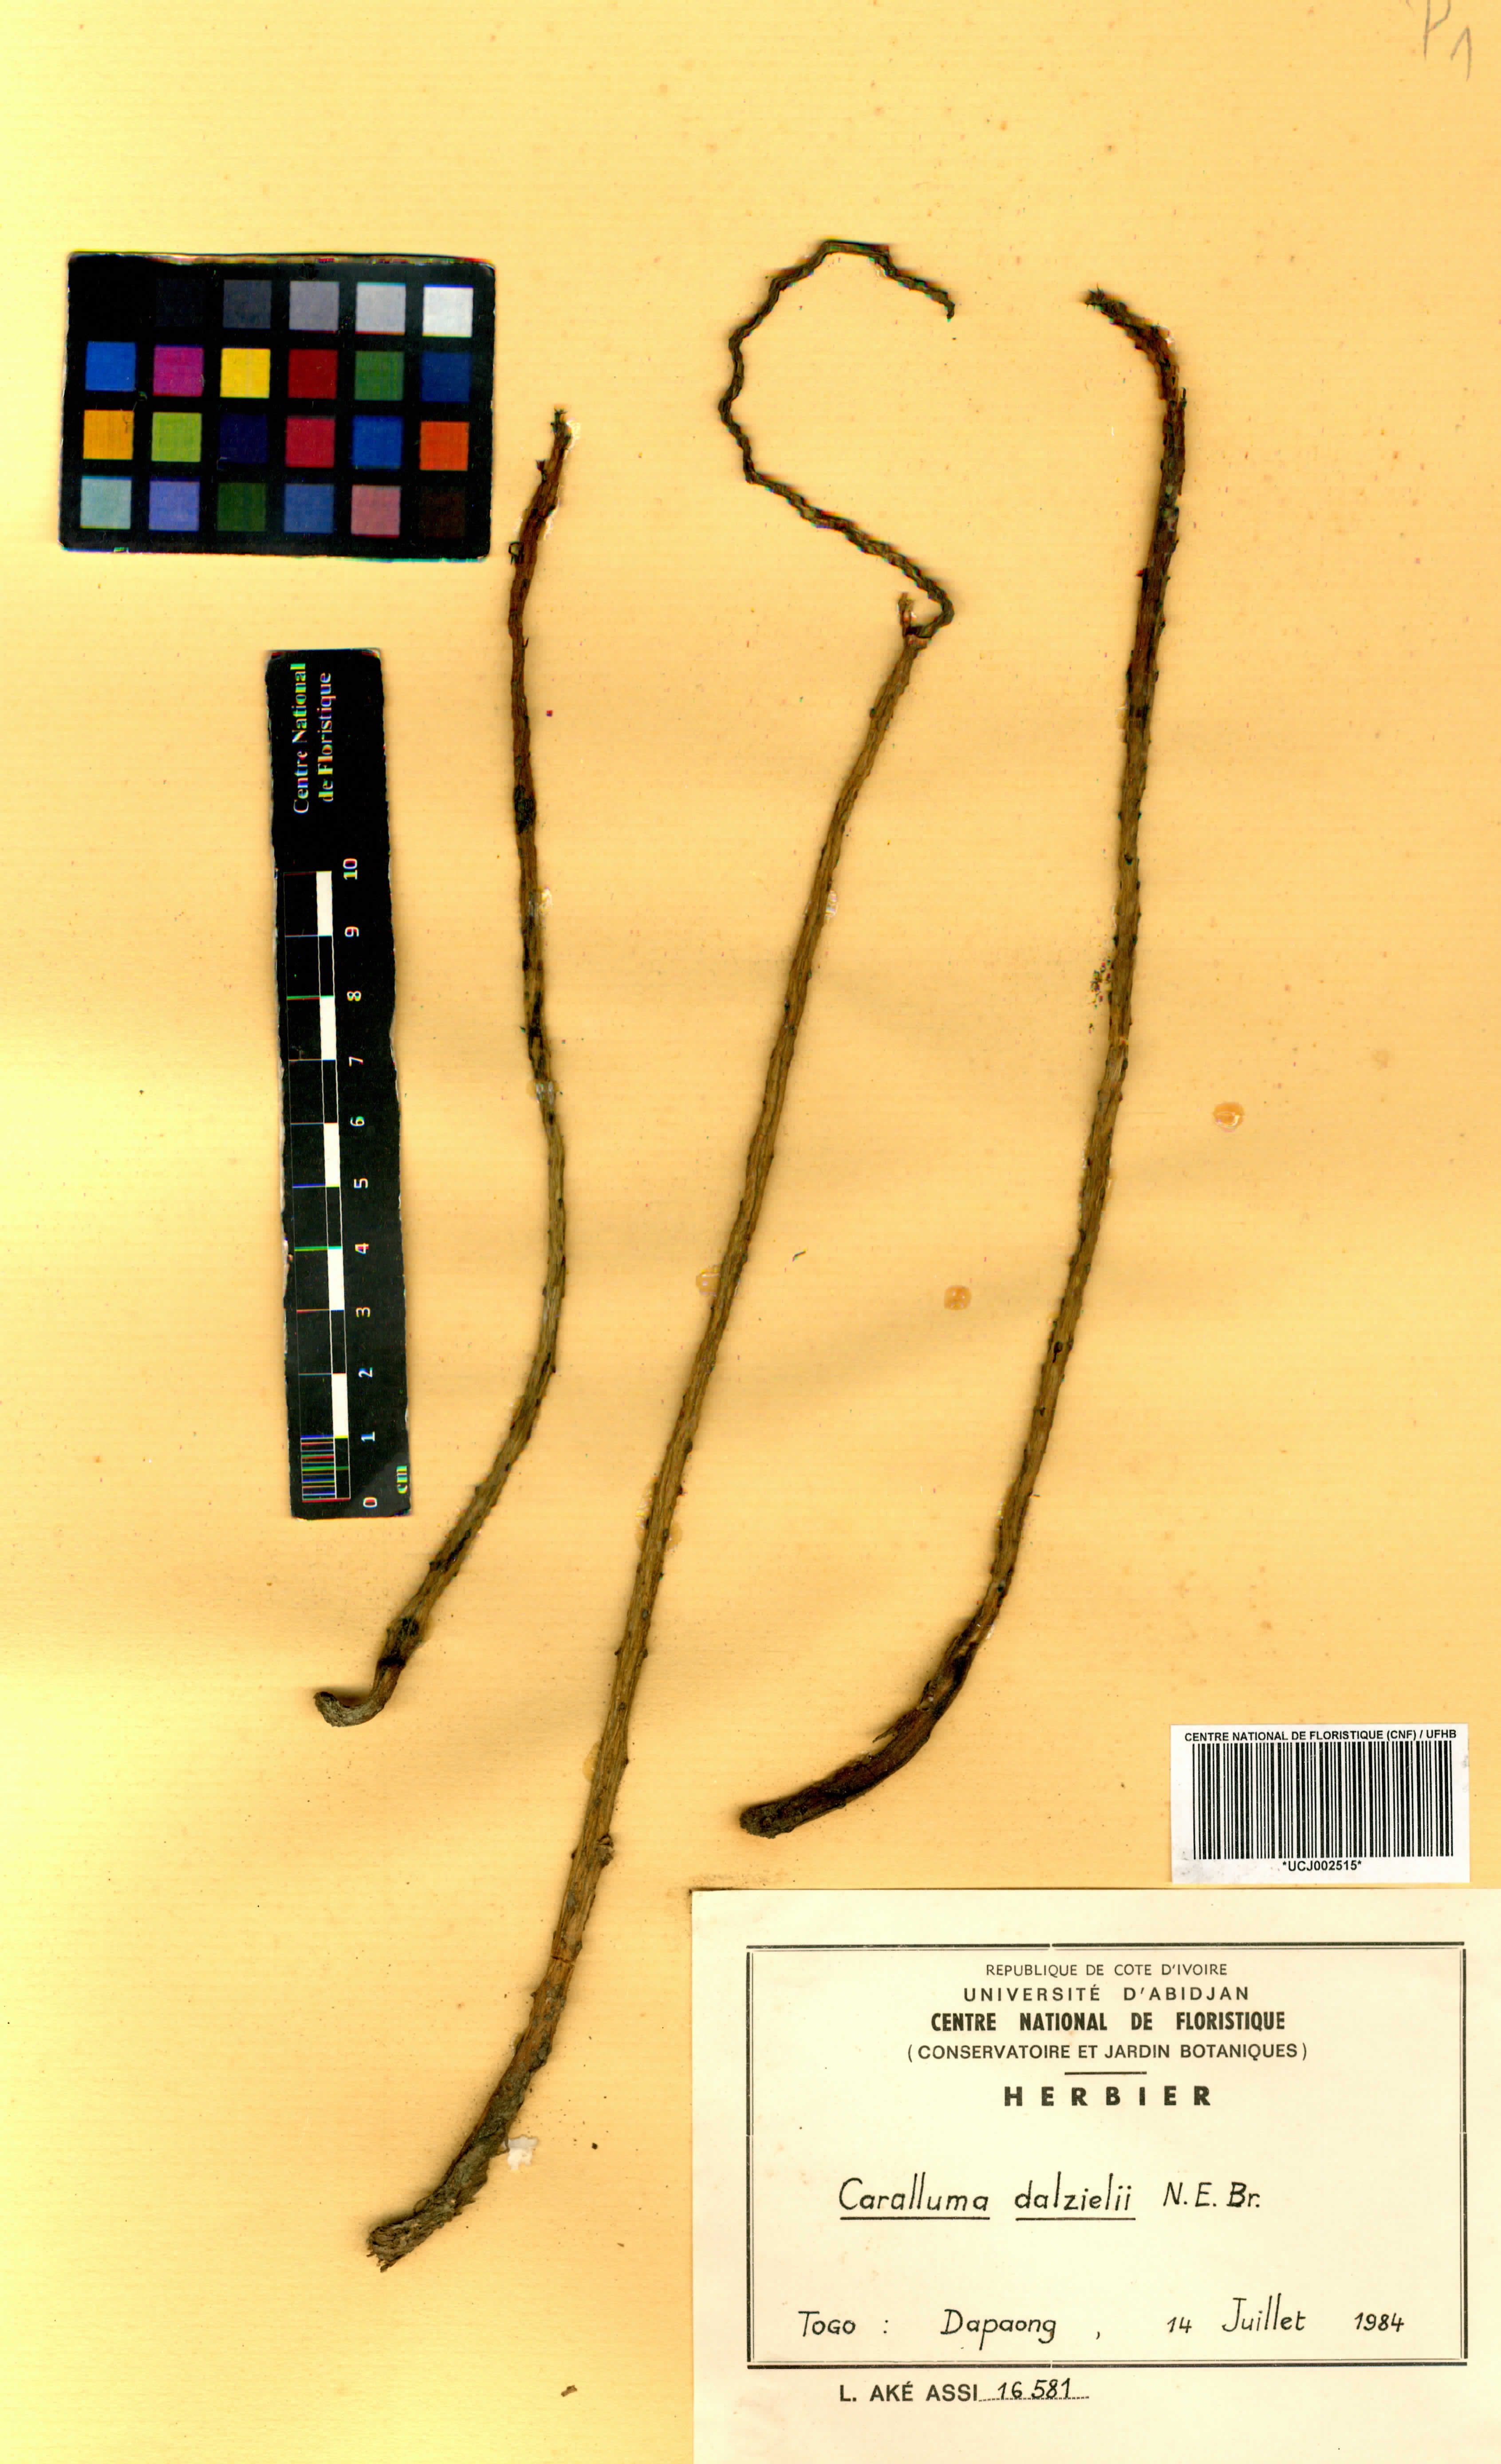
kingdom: Plantae
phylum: Tracheophyta
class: Magnoliopsida
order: Gentianales
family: Apocynaceae
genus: Ceropegia
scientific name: Ceropegia sudanica
